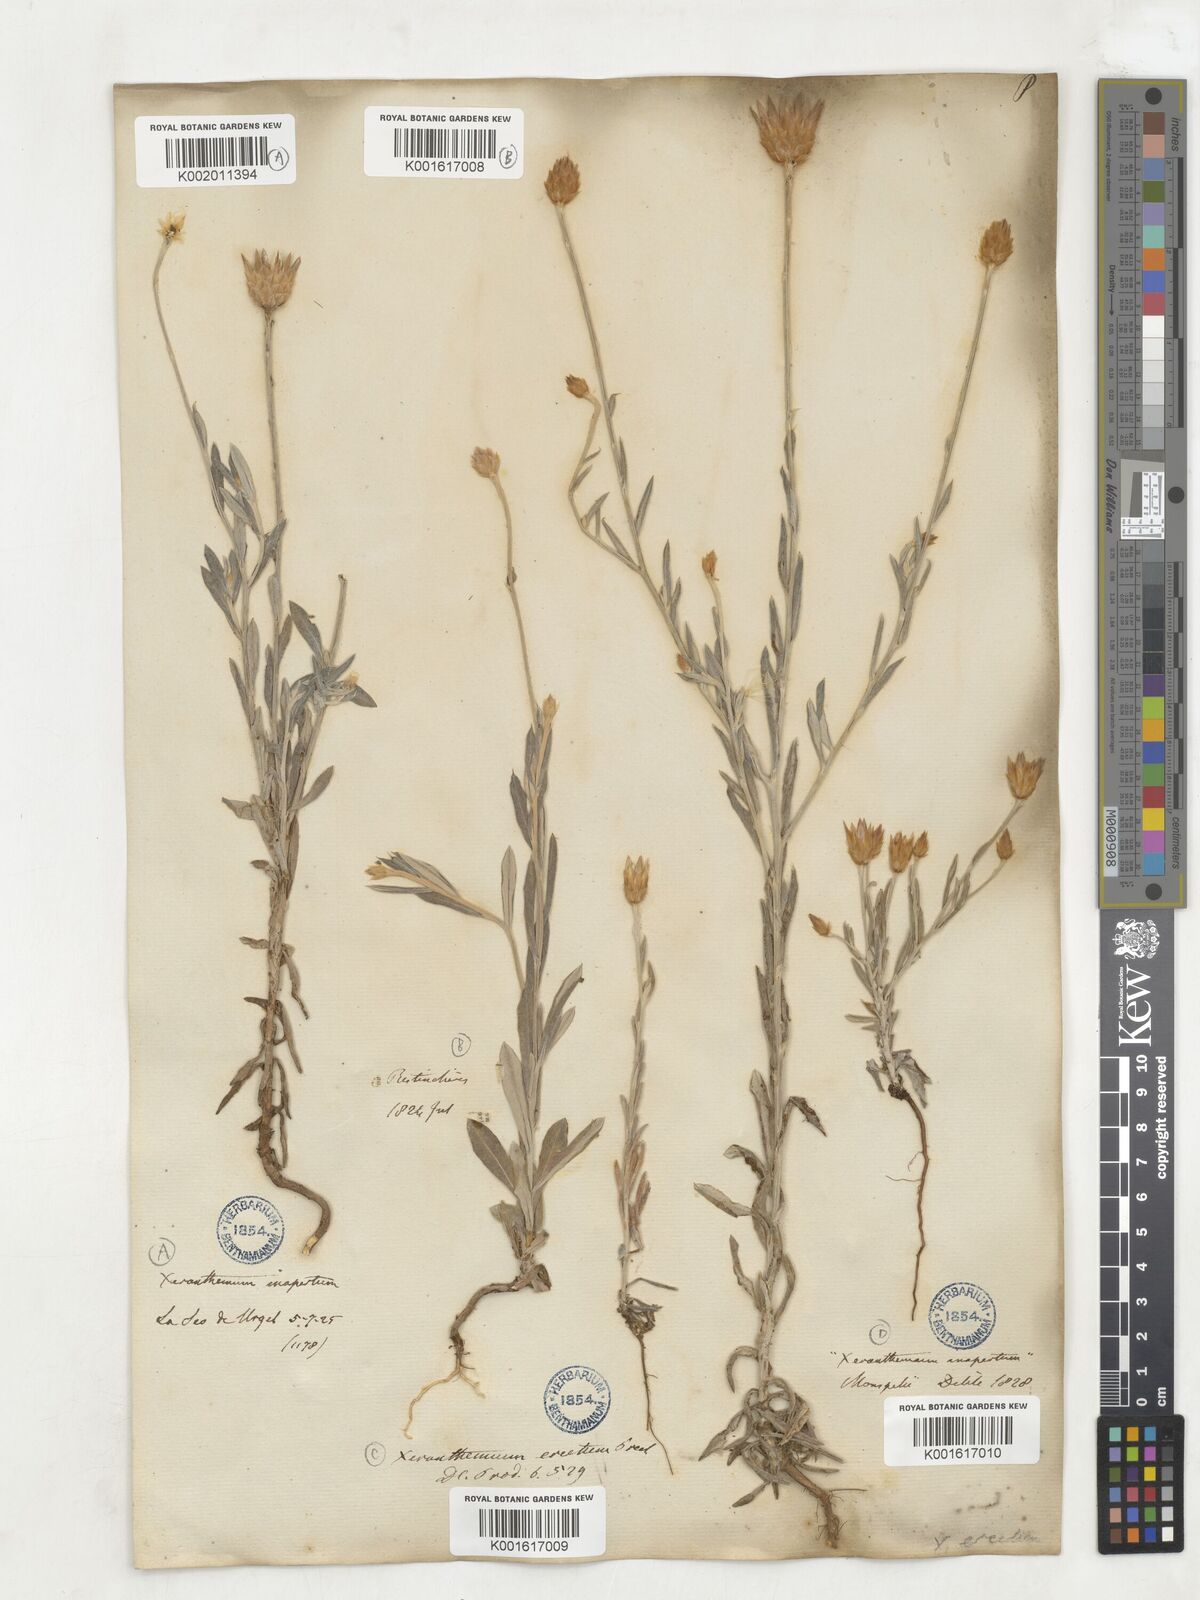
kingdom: Plantae
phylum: Tracheophyta
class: Magnoliopsida
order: Asterales
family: Asteraceae
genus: Xeranthemum
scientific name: Xeranthemum inapertum
